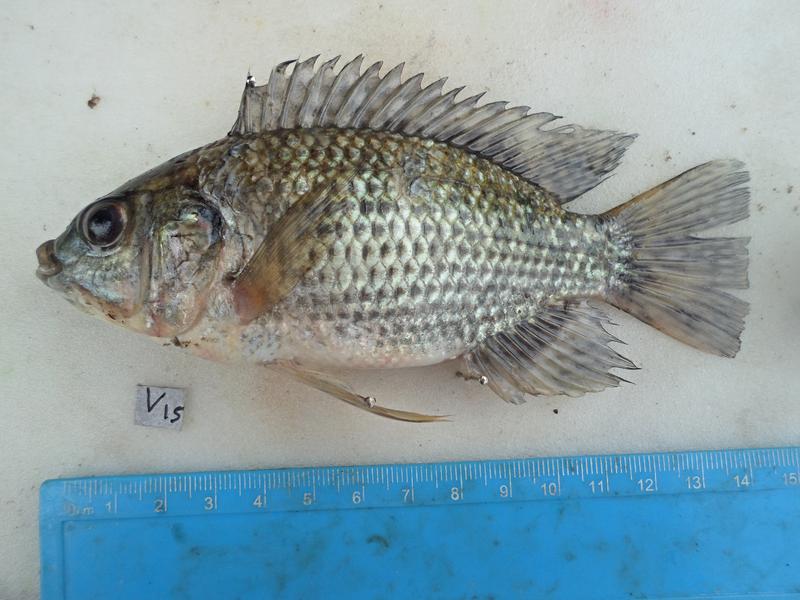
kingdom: Animalia
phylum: Chordata
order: Perciformes
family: Cichlidae
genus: Oreochromis
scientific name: Oreochromis leucostictus
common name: Blue spotted tilapia
